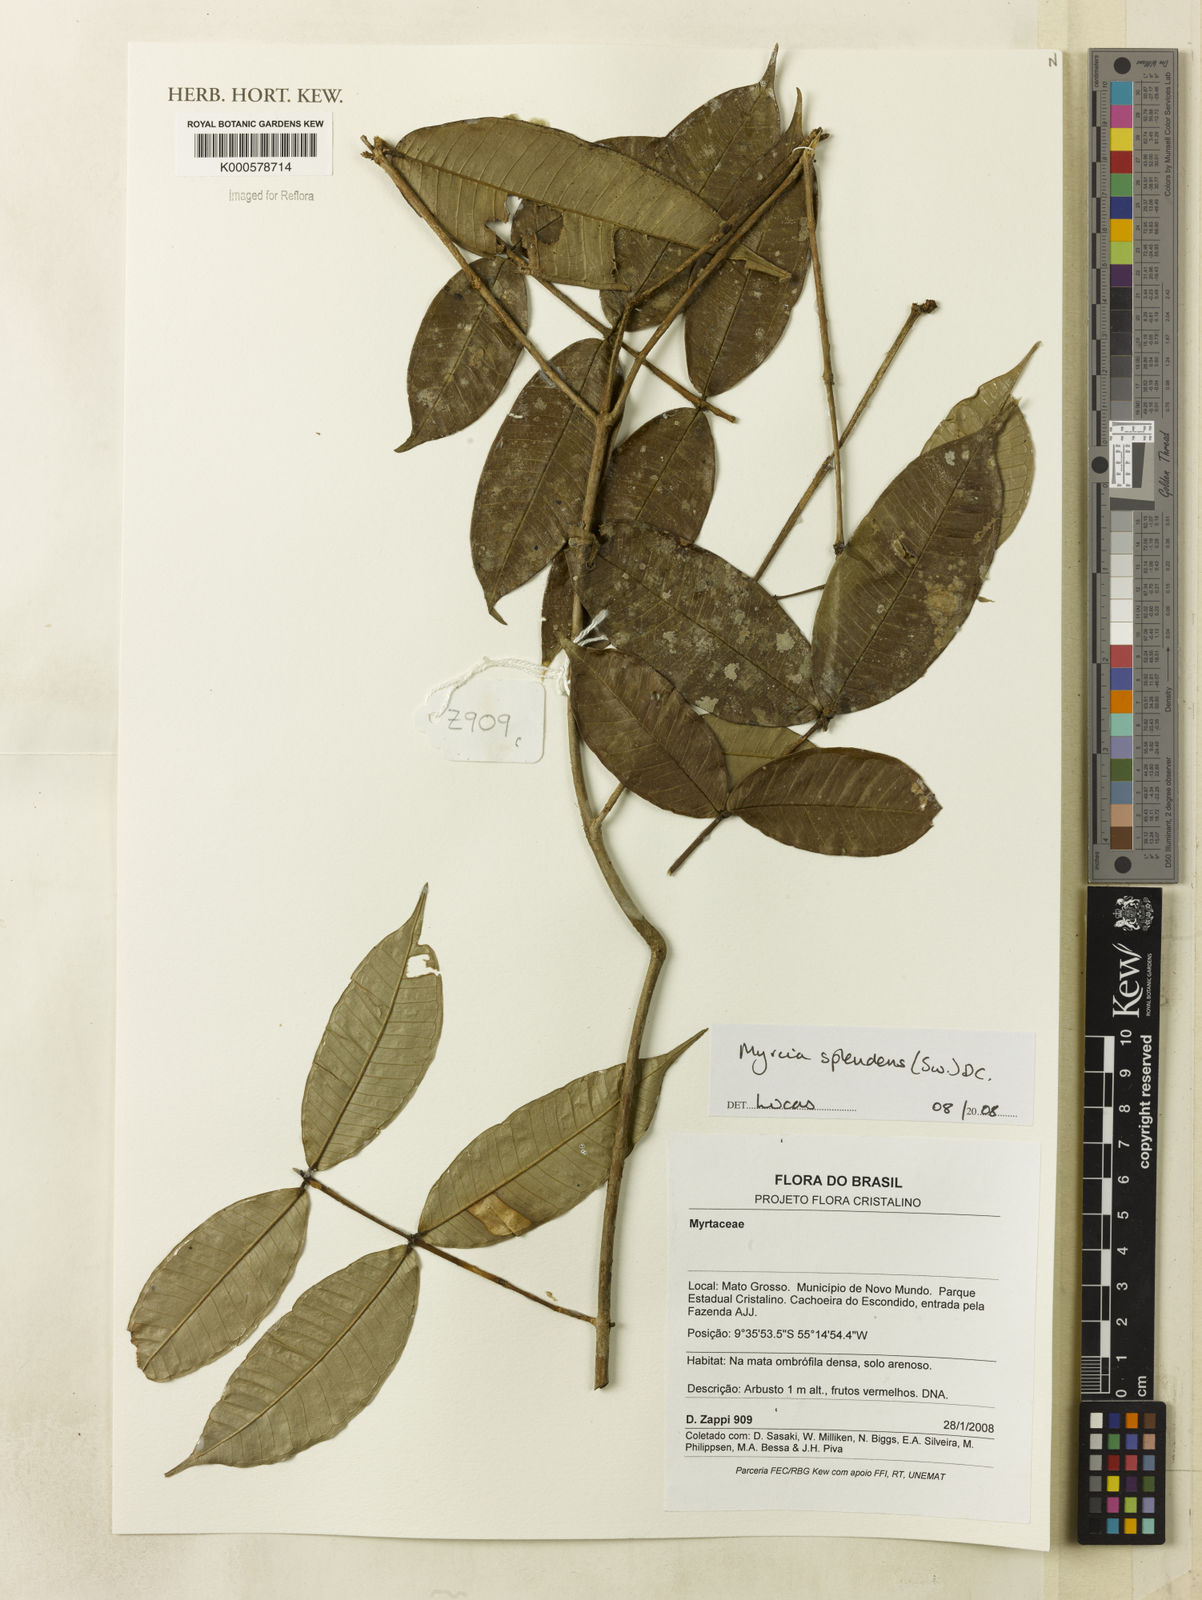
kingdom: Plantae
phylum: Tracheophyta
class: Magnoliopsida
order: Myrtales
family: Myrtaceae
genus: Myrcia
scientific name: Myrcia splendens
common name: Surinam cherry
